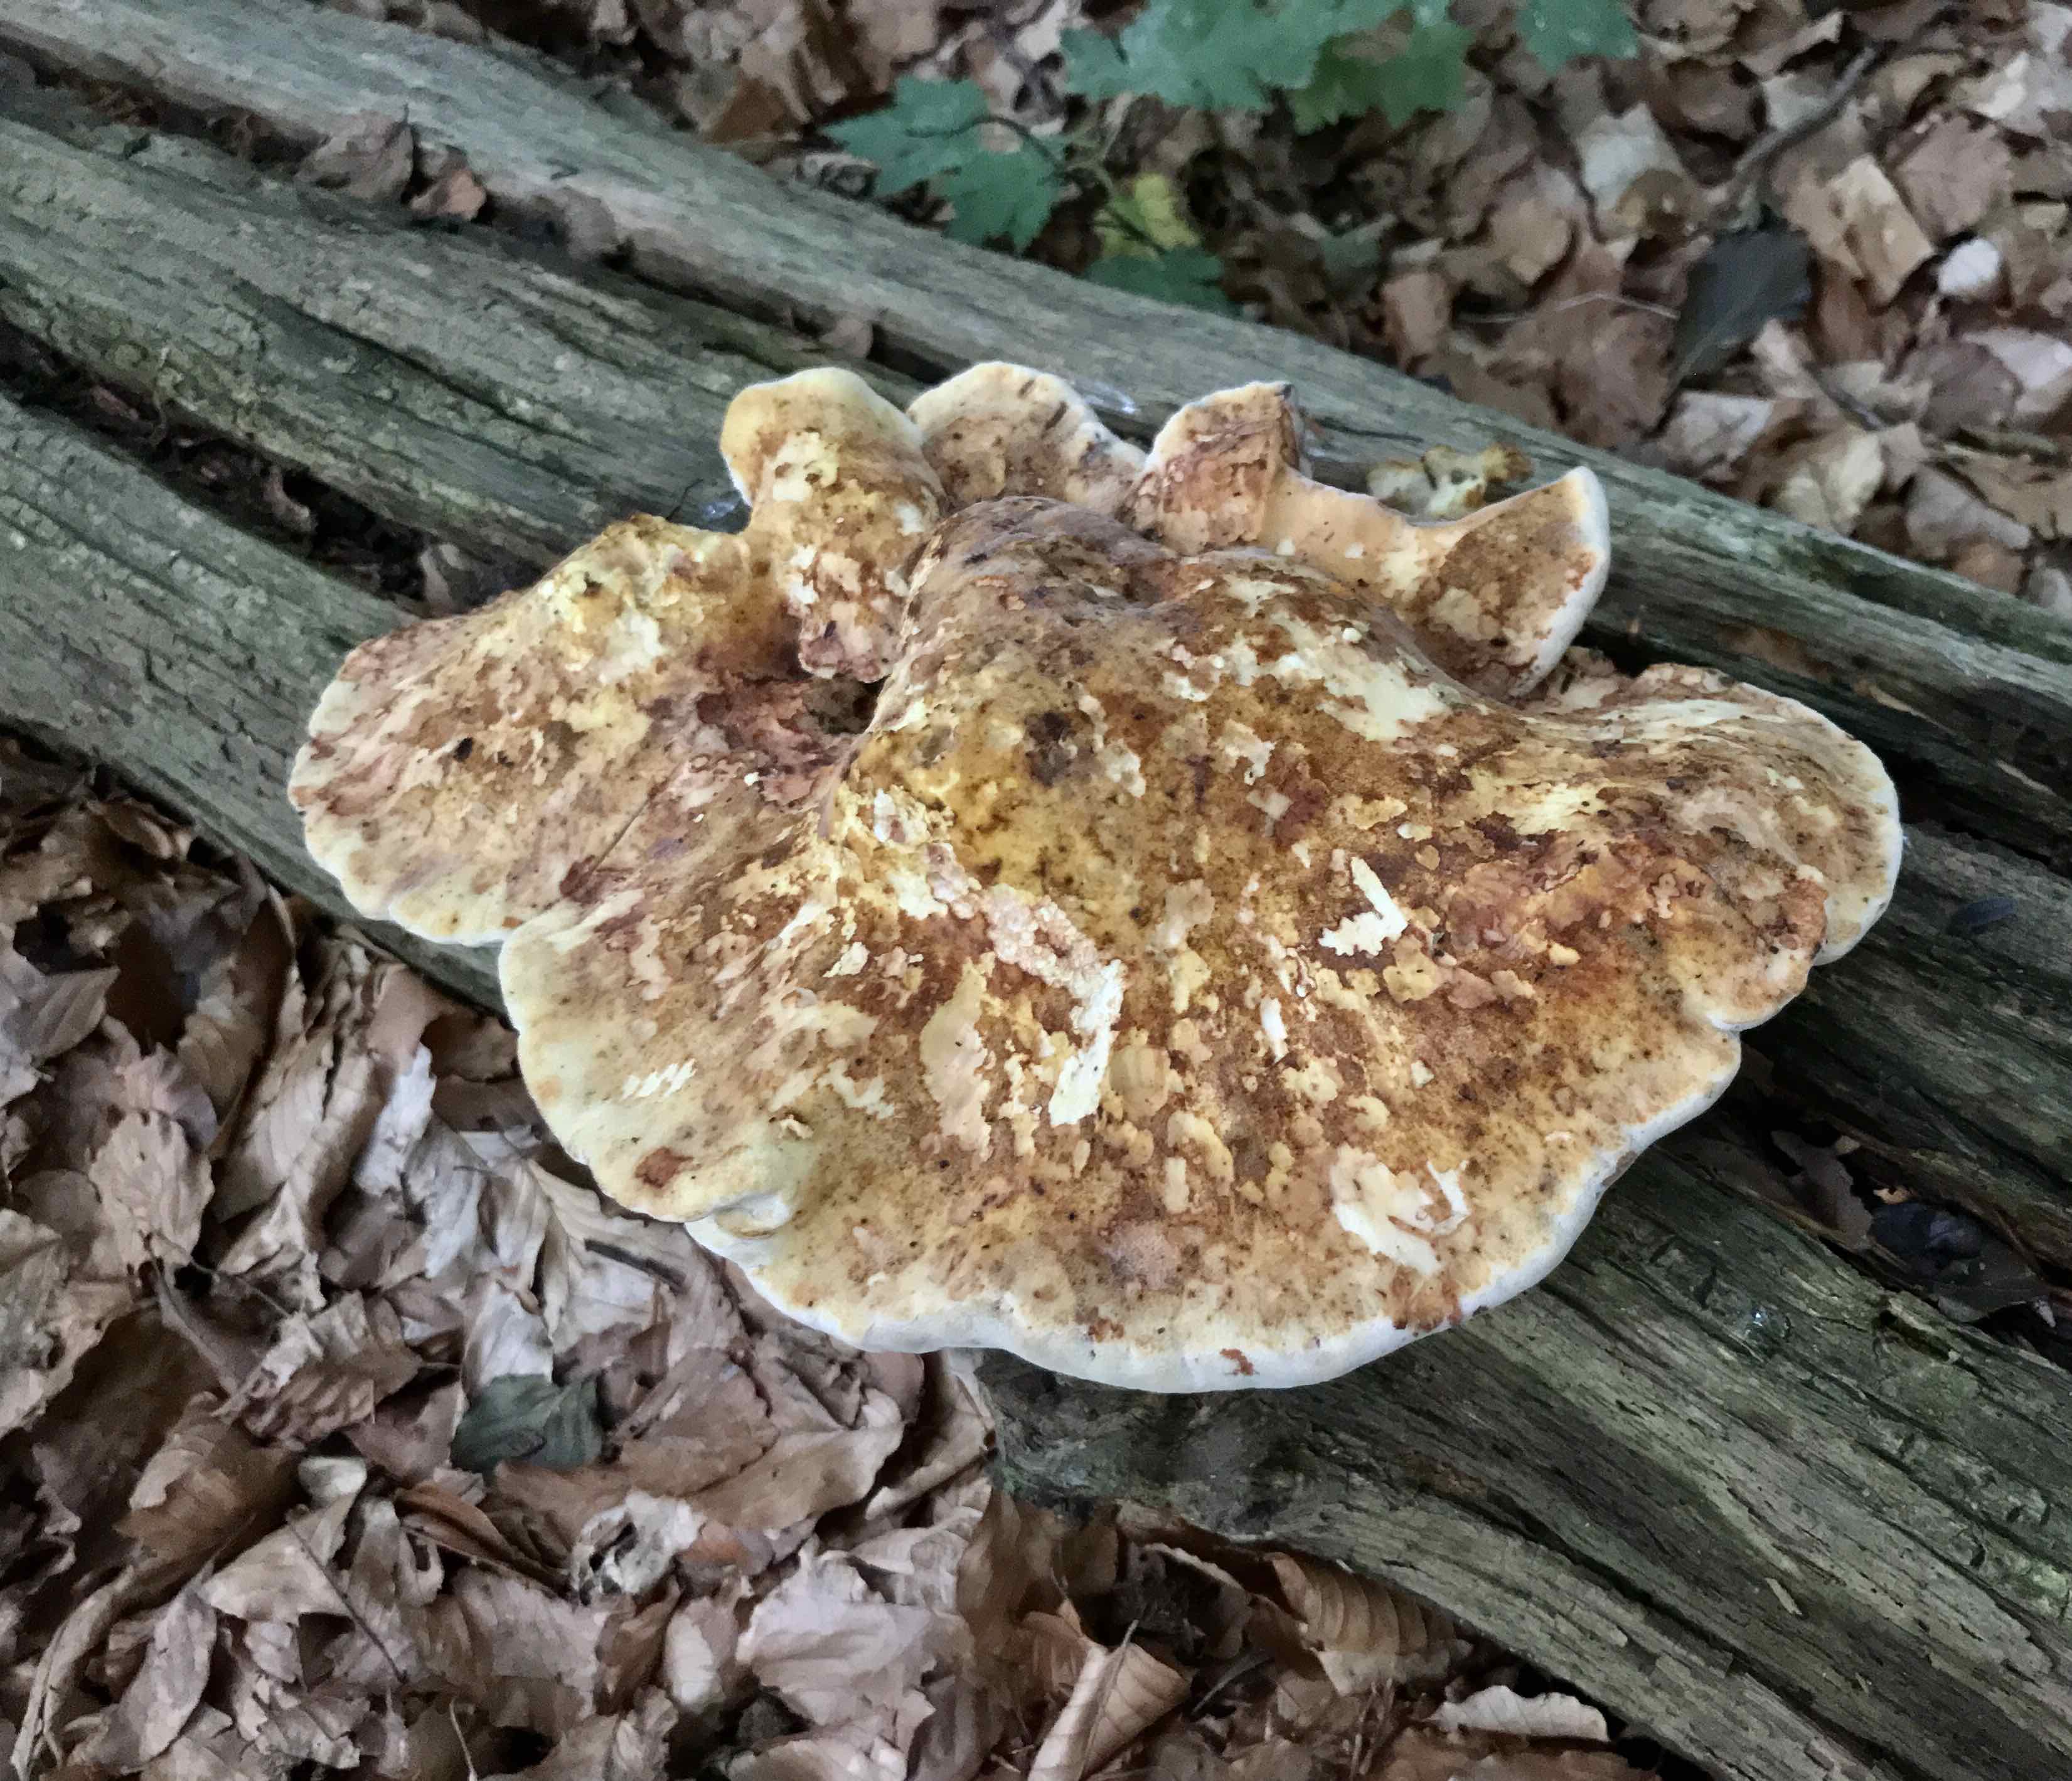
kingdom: Fungi
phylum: Basidiomycota
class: Agaricomycetes
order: Polyporales
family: Fomitopsidaceae
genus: Buglossoporus
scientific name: Buglossoporus quercinus
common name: egetunge
